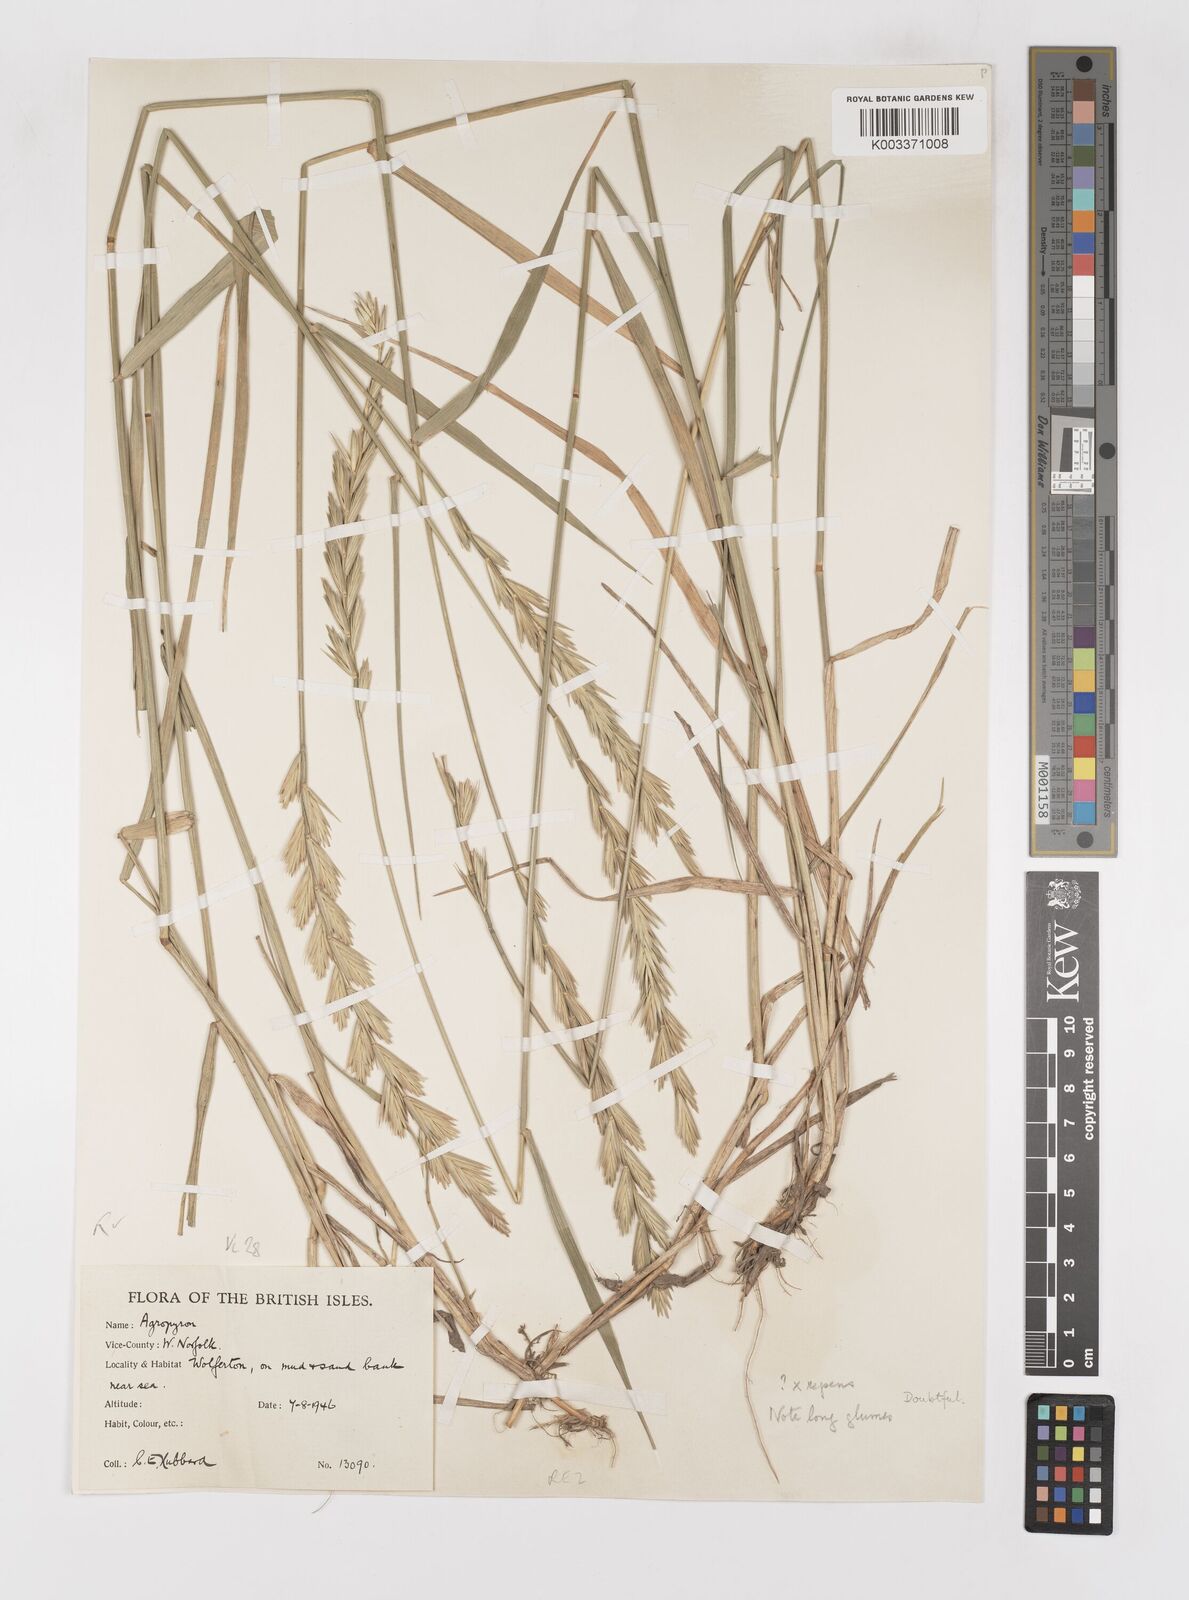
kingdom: Plantae
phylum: Tracheophyta
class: Liliopsida
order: Poales
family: Poaceae
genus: Elymus
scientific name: Elymus repens
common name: Quackgrass
